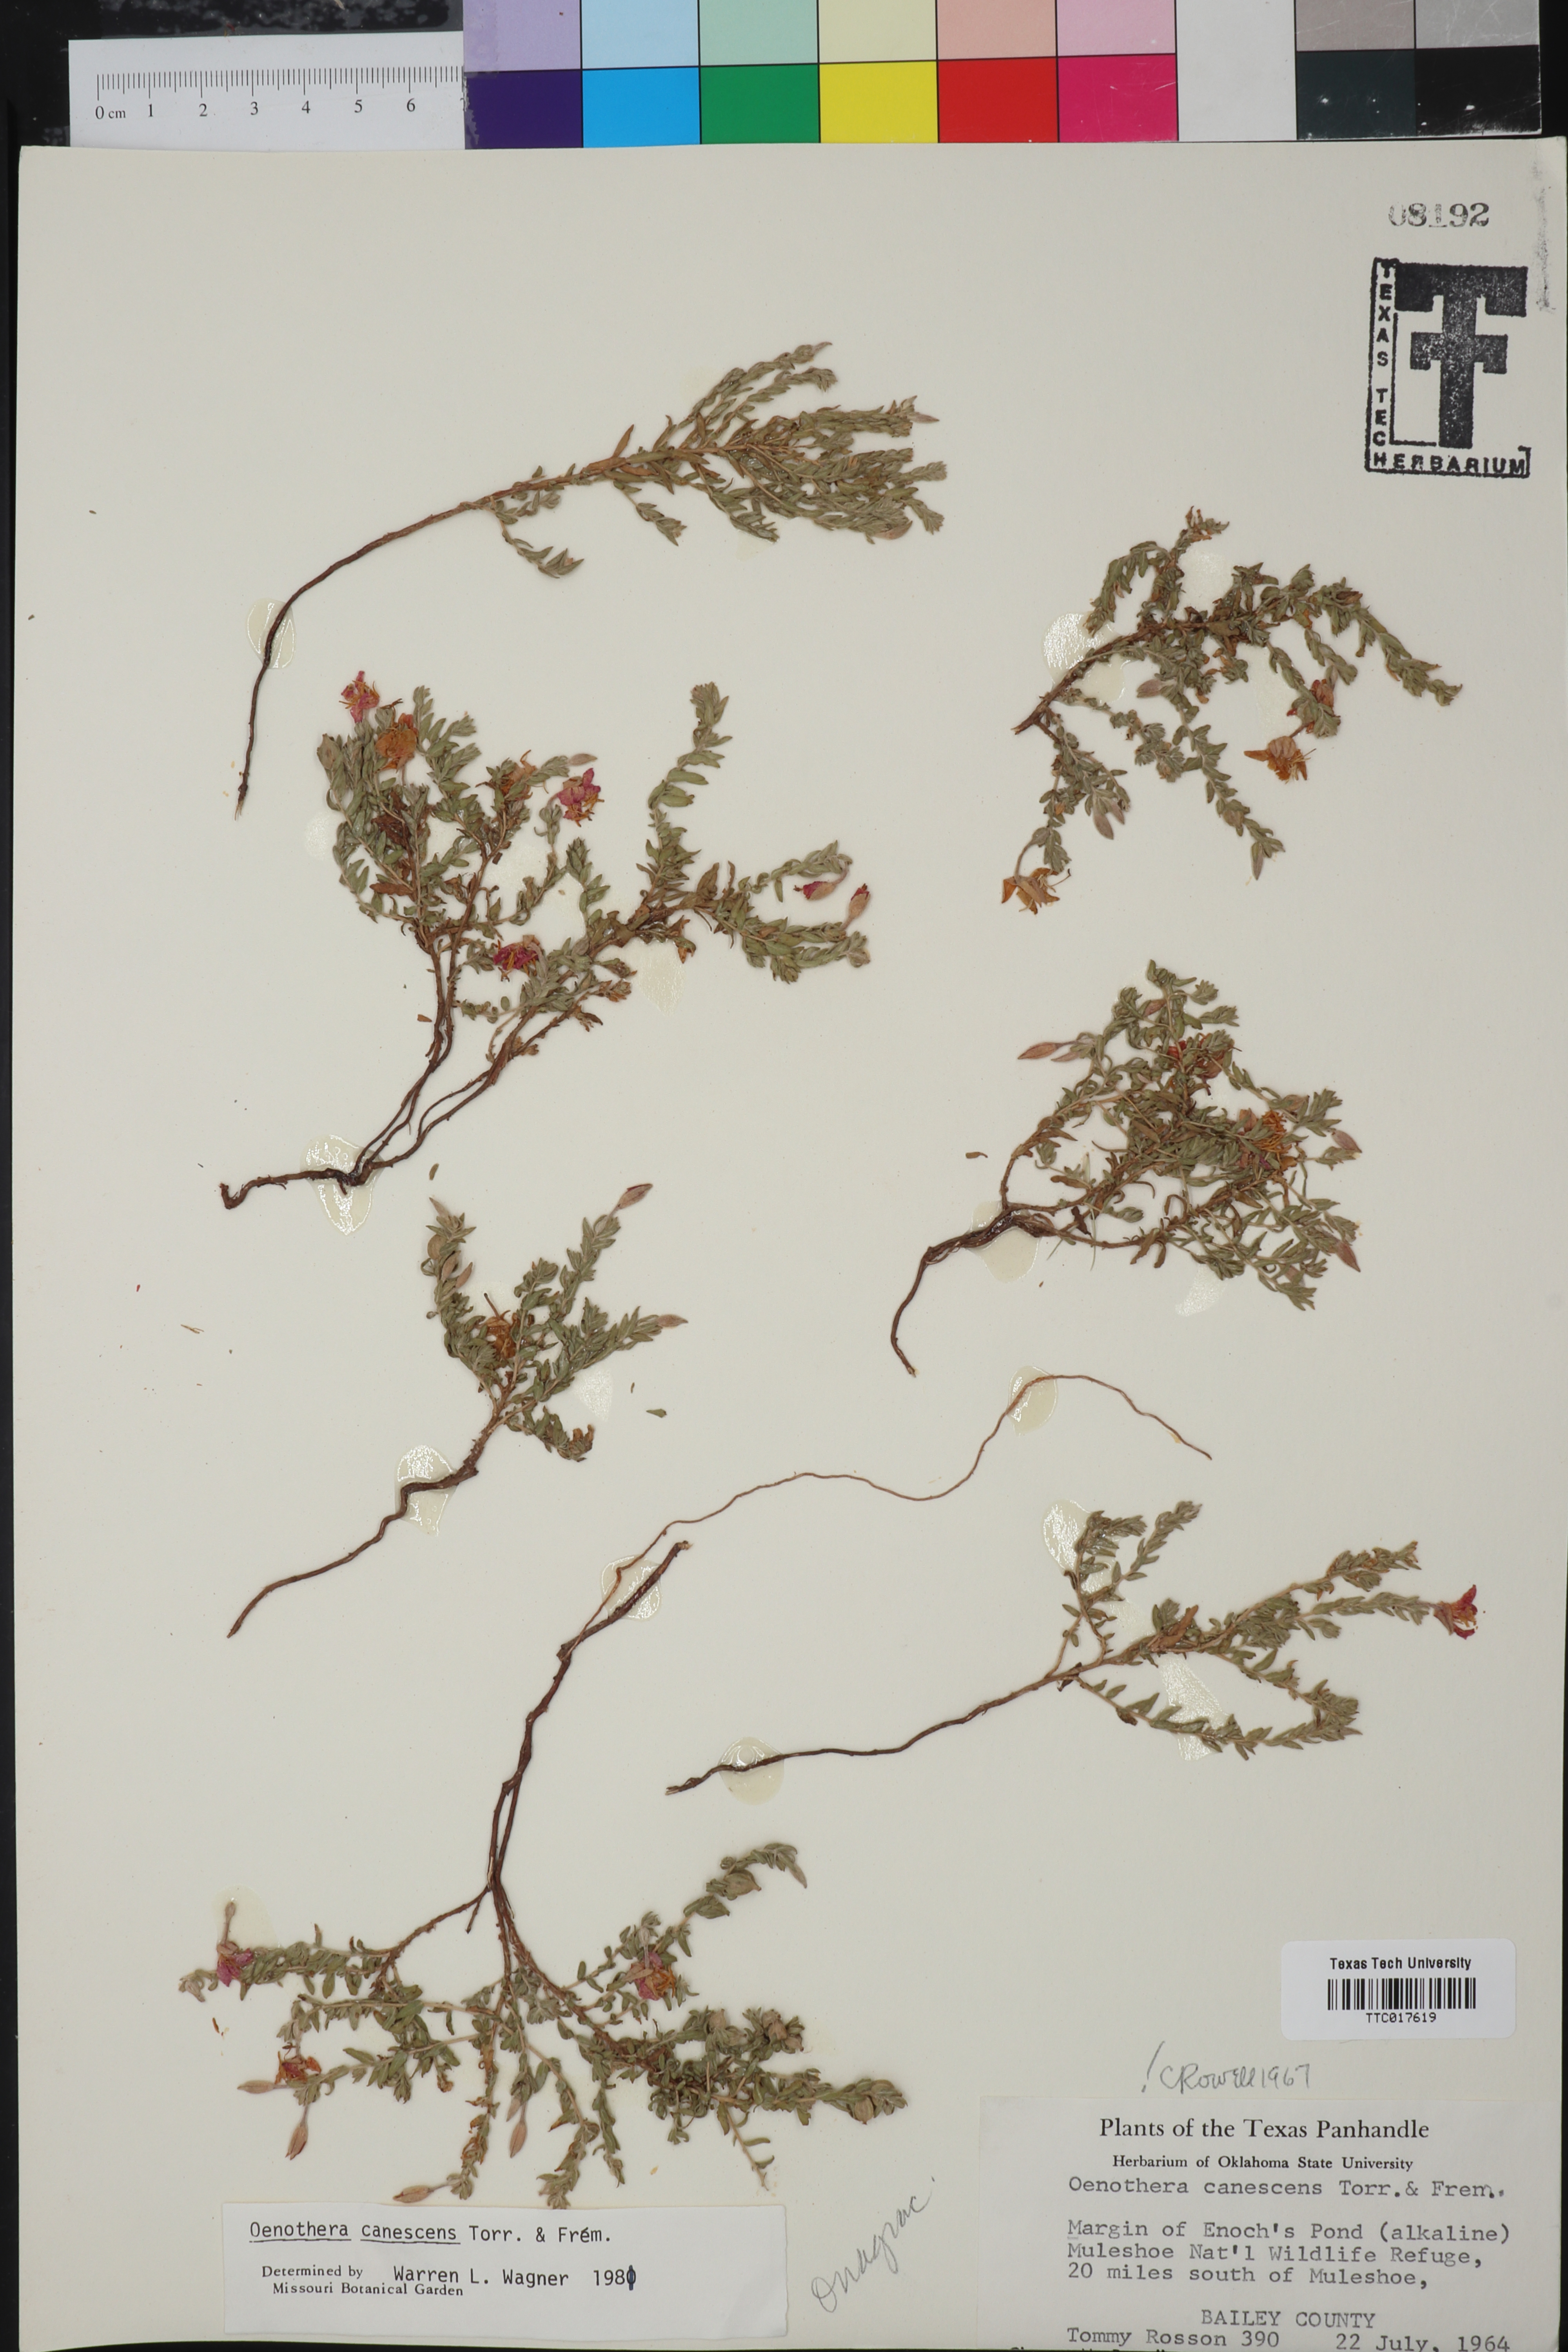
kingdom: Plantae
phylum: Tracheophyta
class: Magnoliopsida
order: Myrtales
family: Onagraceae
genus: Oenothera
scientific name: Oenothera canescens
